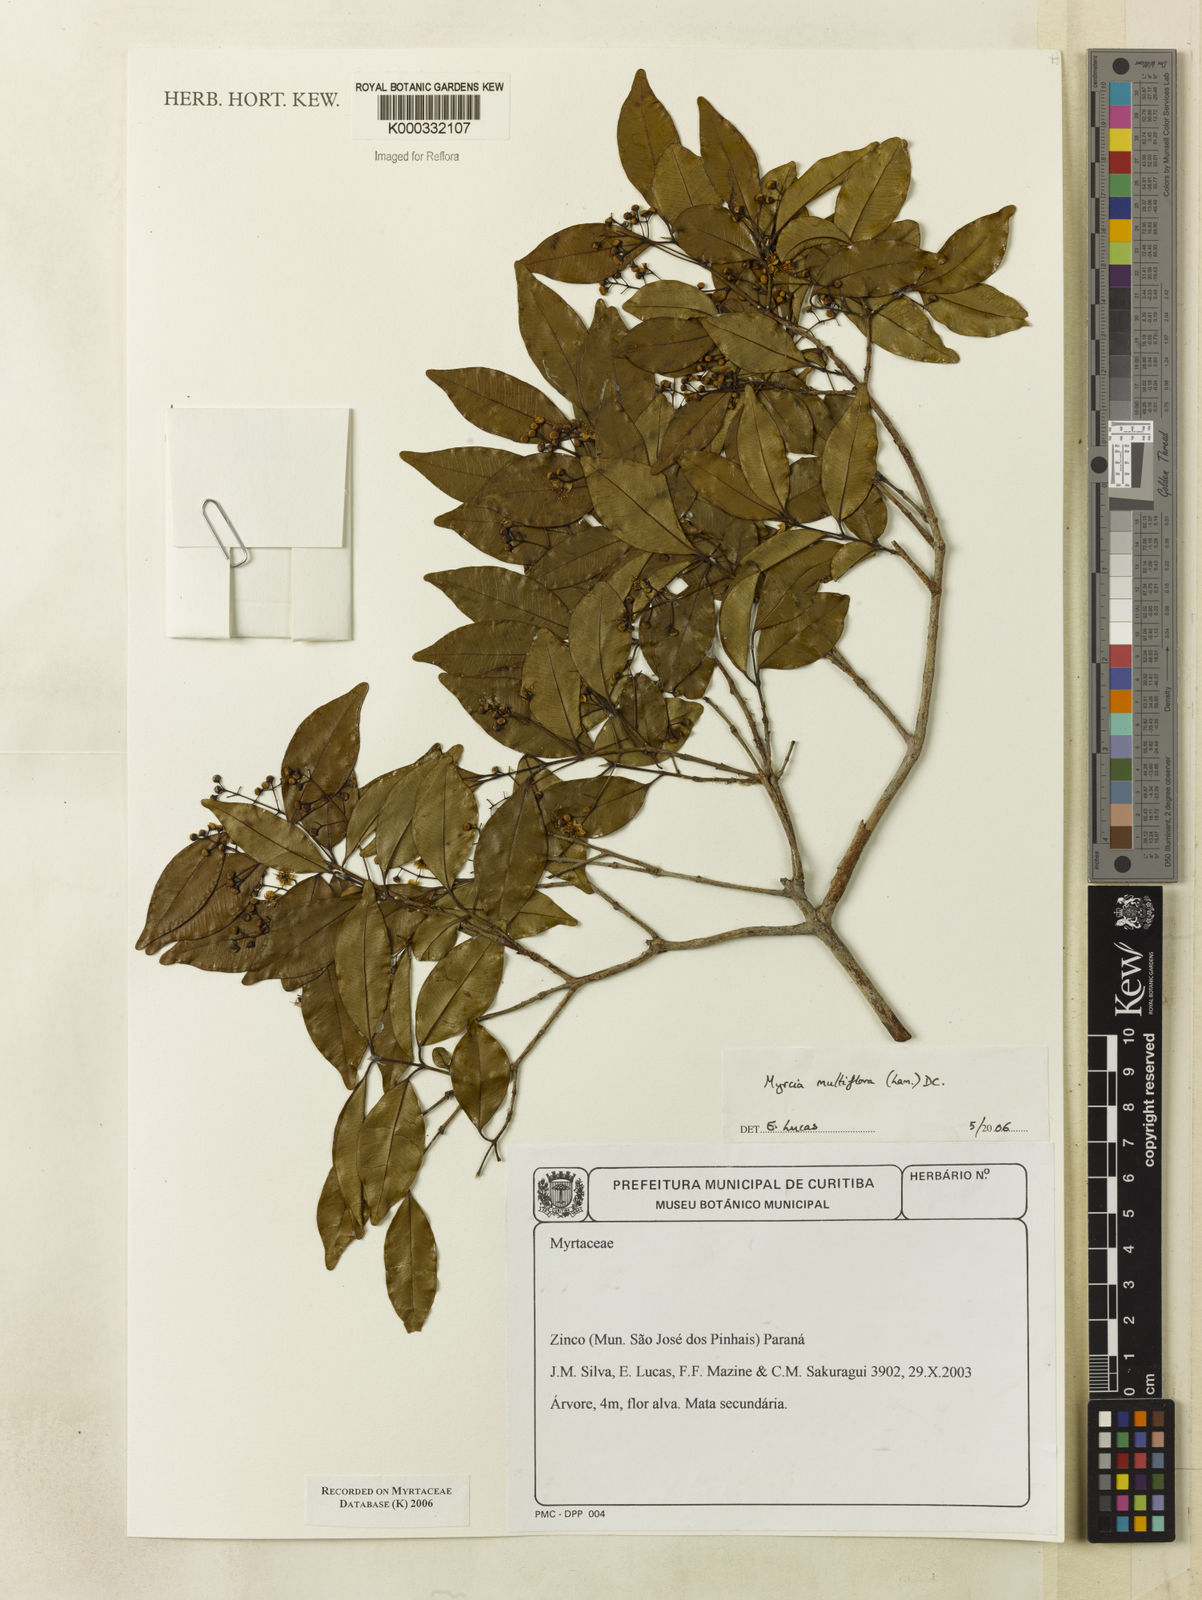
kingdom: Plantae
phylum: Tracheophyta
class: Magnoliopsida
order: Myrtales
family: Myrtaceae
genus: Myrcia
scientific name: Myrcia multiflora
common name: Pedra hume
